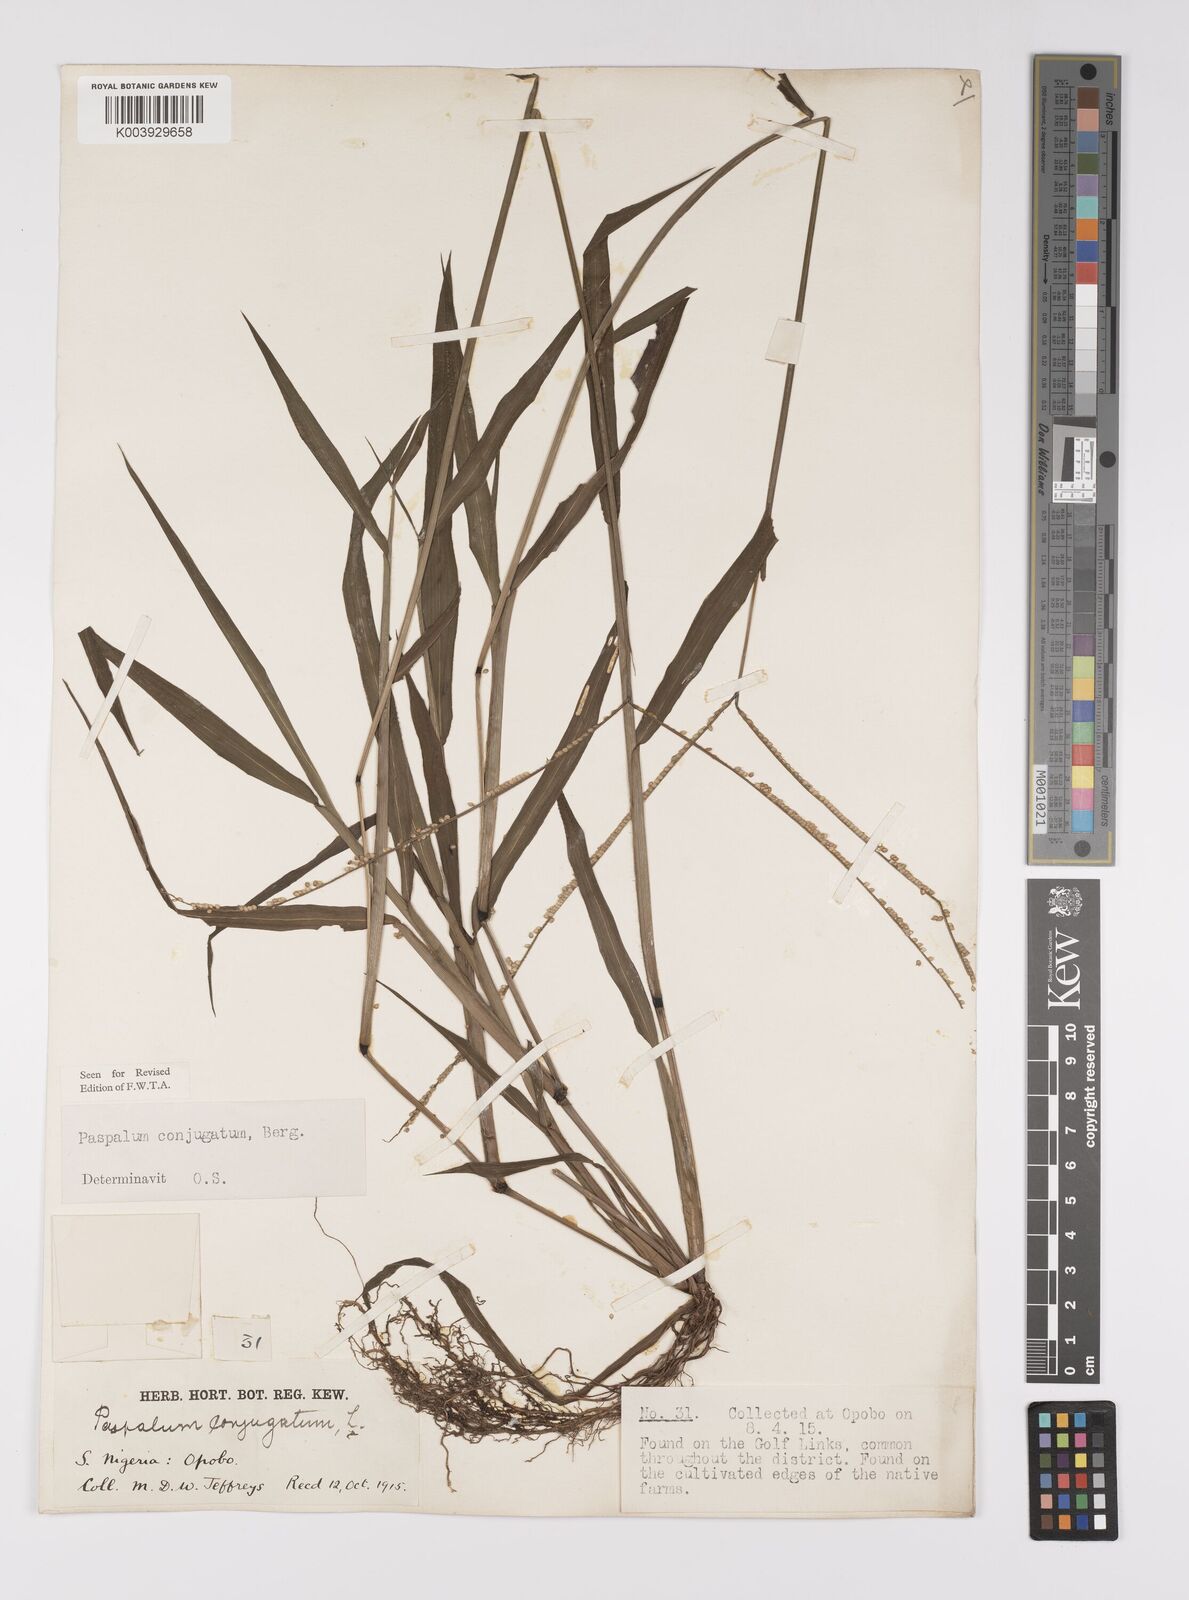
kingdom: Plantae
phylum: Tracheophyta
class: Liliopsida
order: Poales
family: Poaceae
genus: Paspalum
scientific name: Paspalum conjugatum
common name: Hilograss
